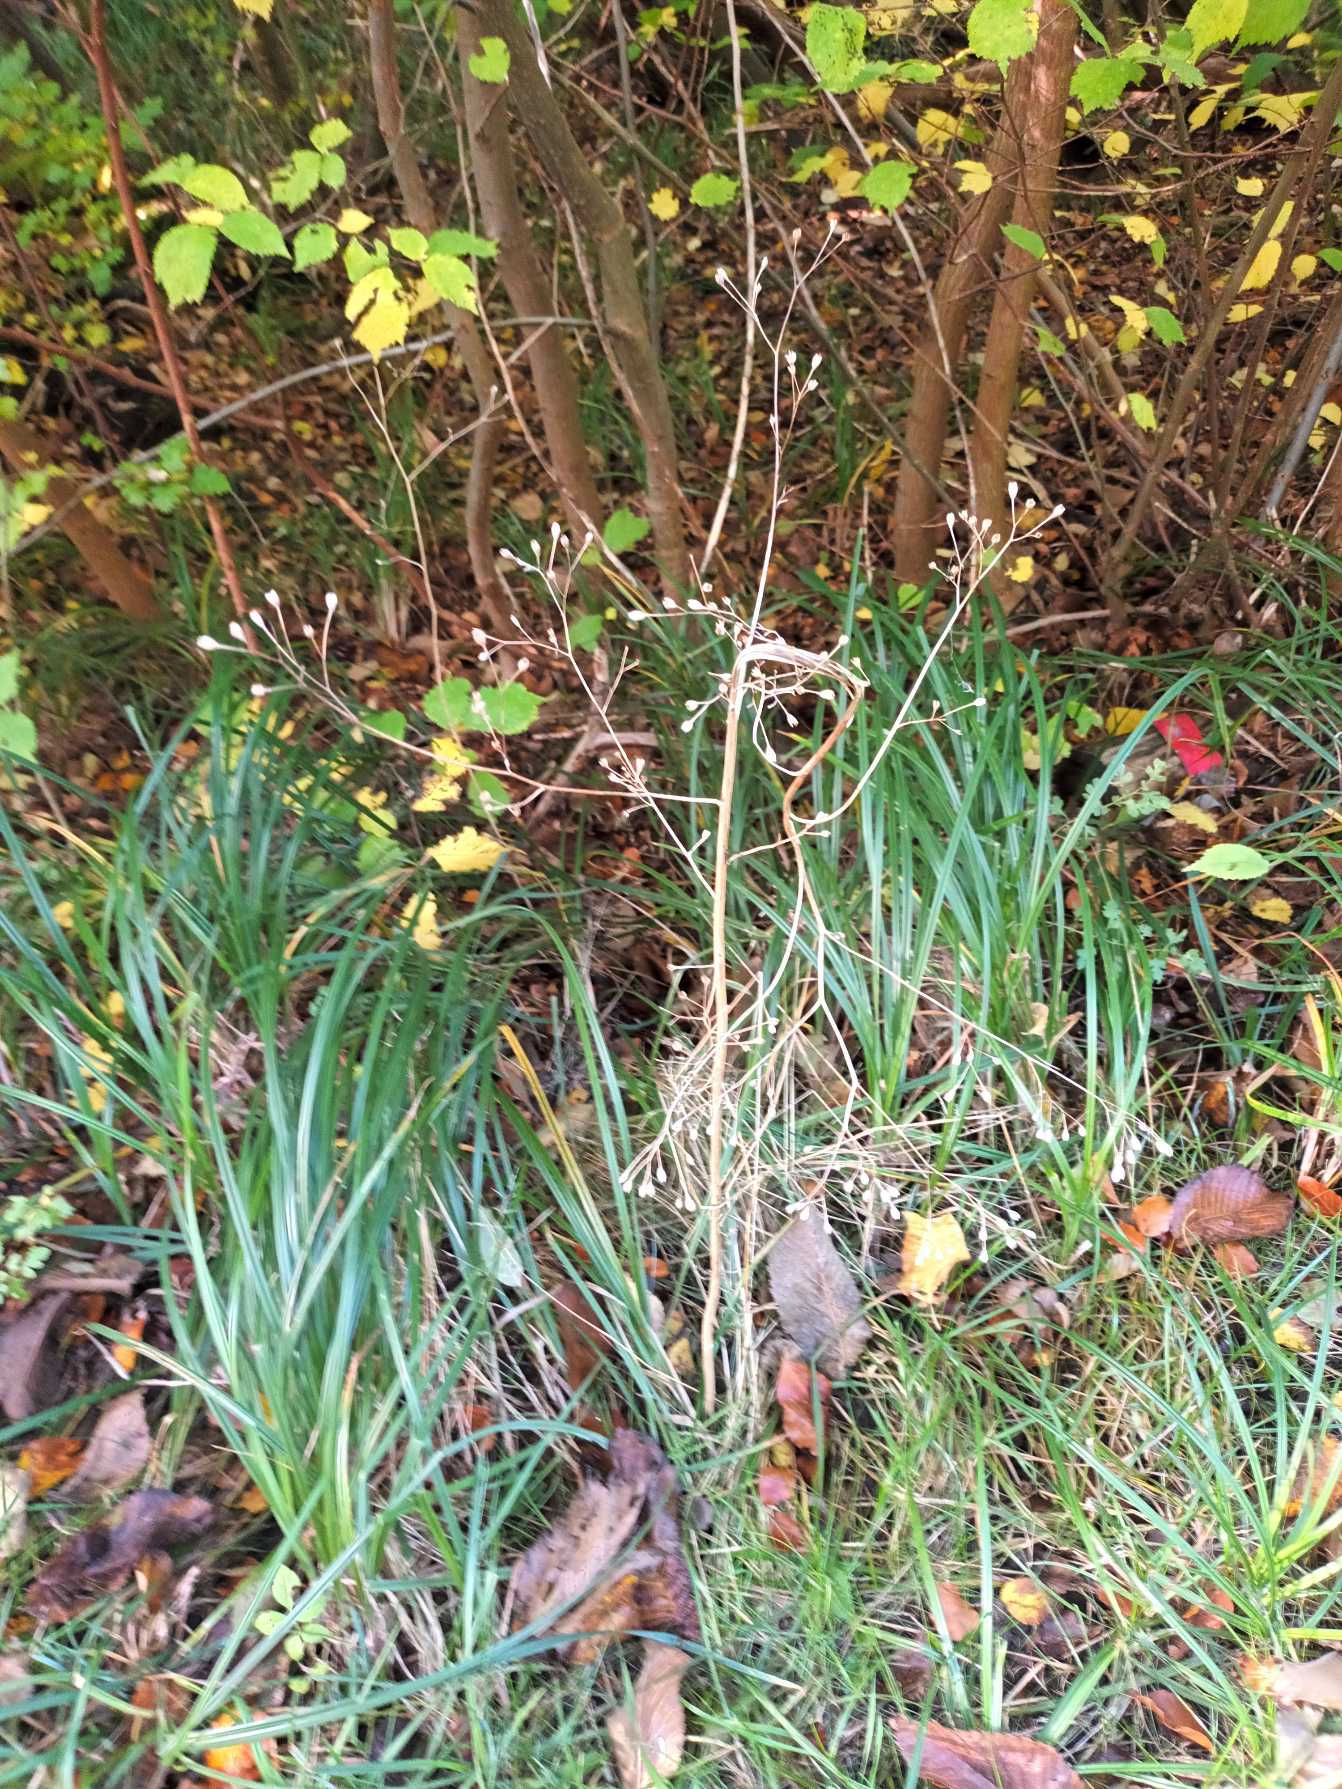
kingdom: Plantae
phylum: Tracheophyta
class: Magnoliopsida
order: Asterales
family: Asteraceae
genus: Lapsana
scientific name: Lapsana communis
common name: Haremad
